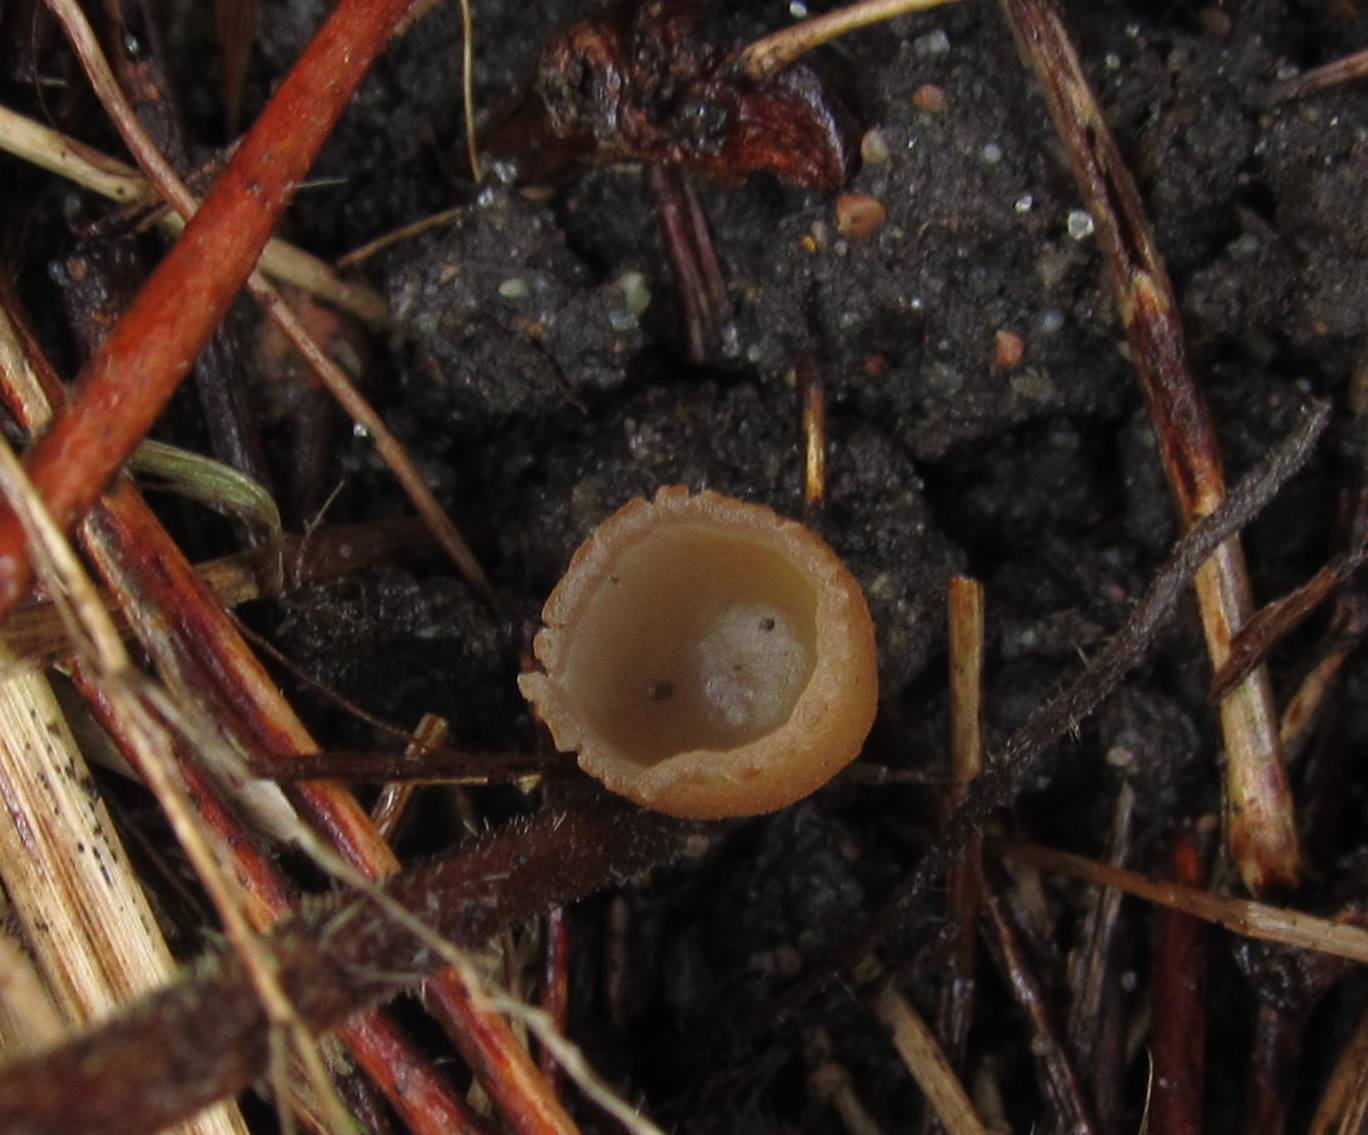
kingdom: Fungi
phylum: Ascomycota
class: Pezizomycetes
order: Pezizales
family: Pezizaceae
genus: Peziza
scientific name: Peziza fimeti
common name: møg-bægersvamp
